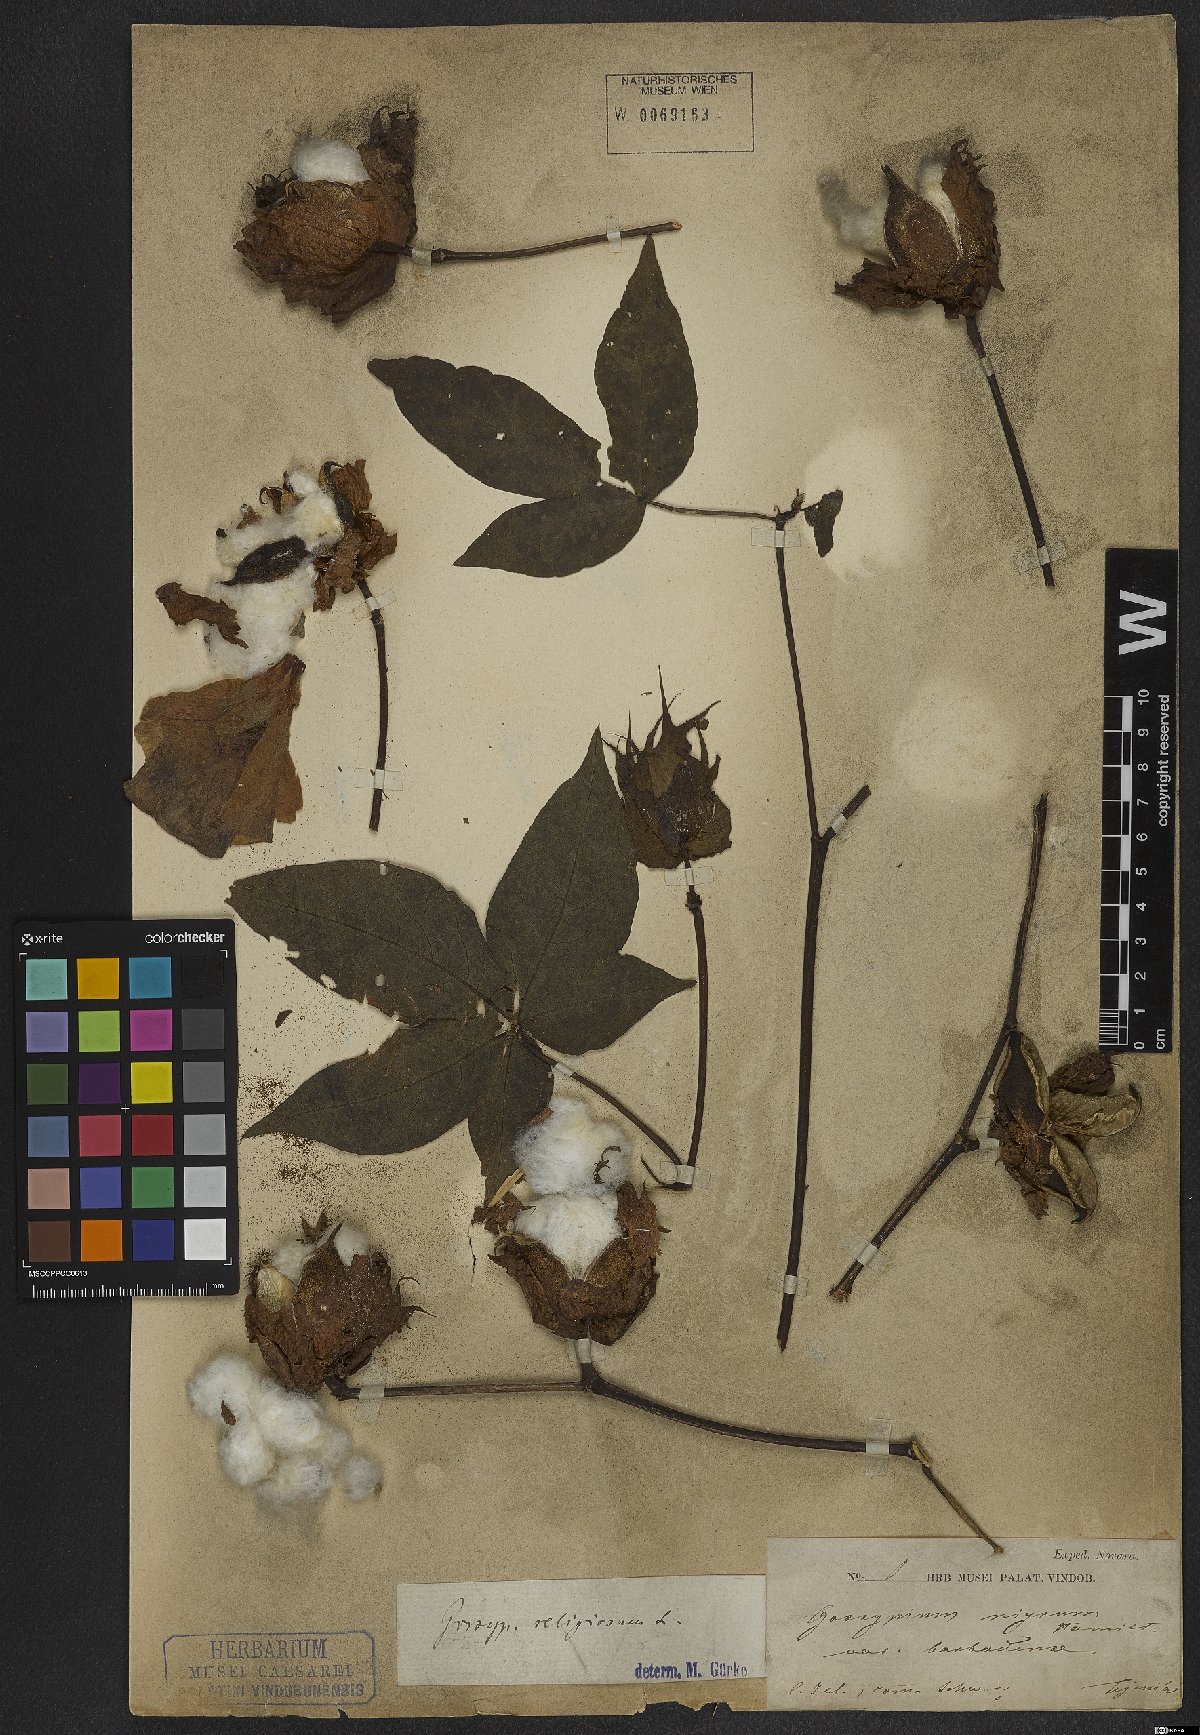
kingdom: Plantae
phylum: Tracheophyta
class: Magnoliopsida
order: Malvales
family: Malvaceae
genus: Gossypium
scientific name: Gossypium hirsutum
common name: Cotton
